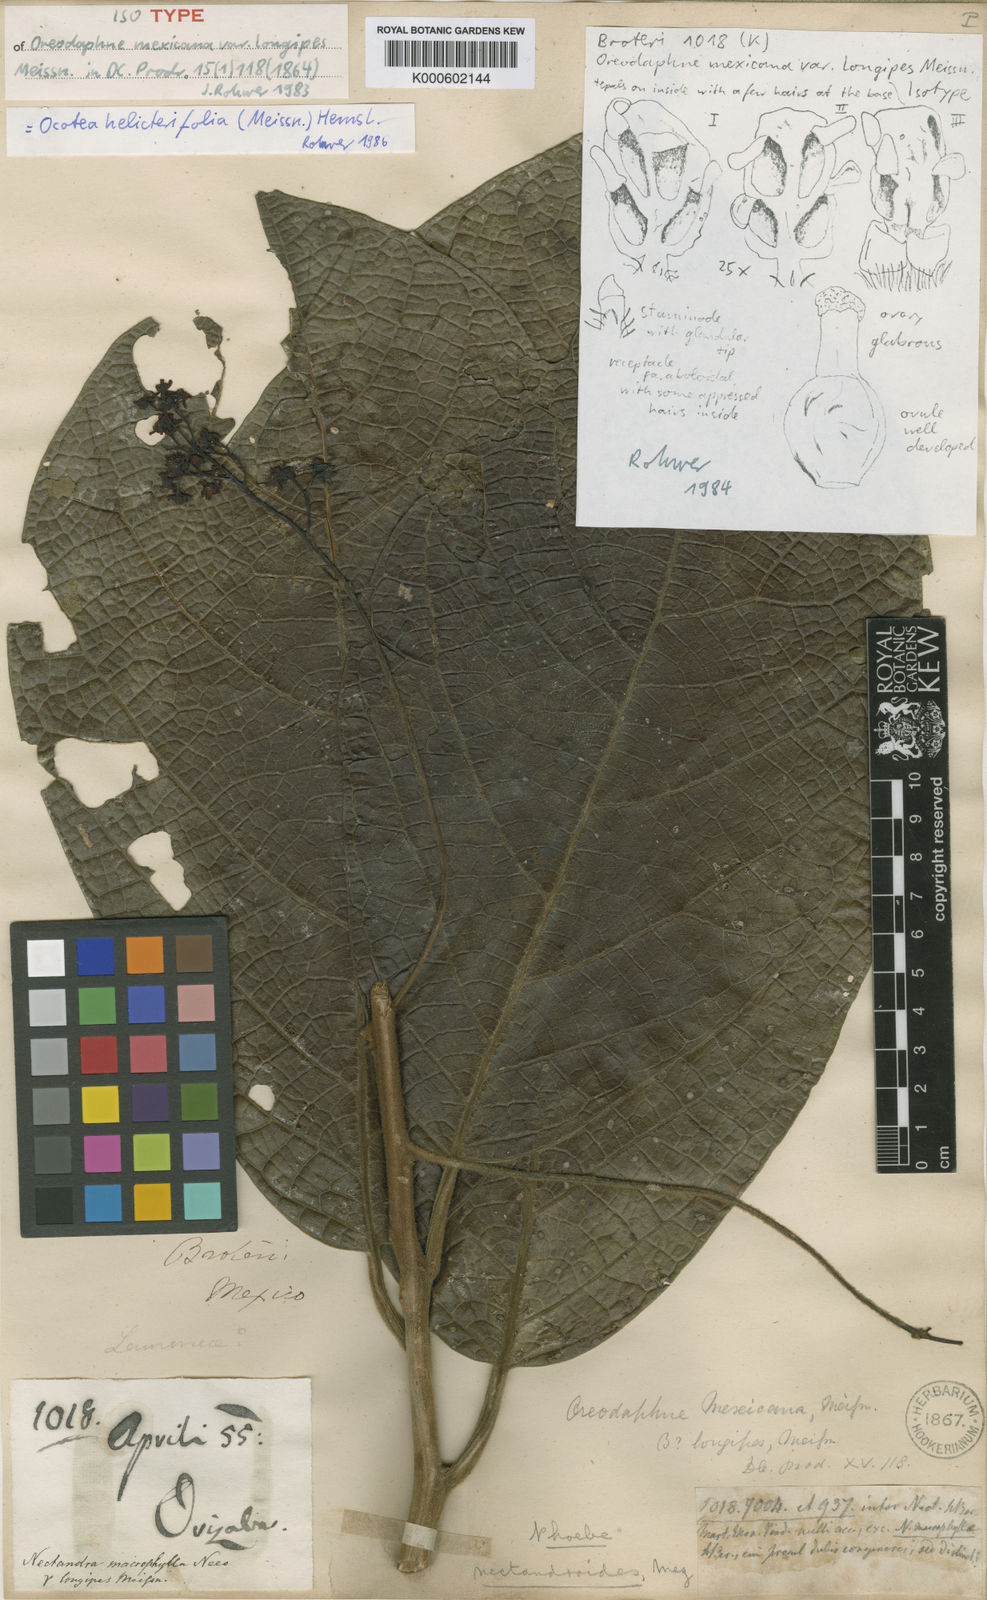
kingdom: Plantae
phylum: Tracheophyta
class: Magnoliopsida
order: Laurales
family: Lauraceae
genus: Ocotea
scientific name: Ocotea macrophylla
